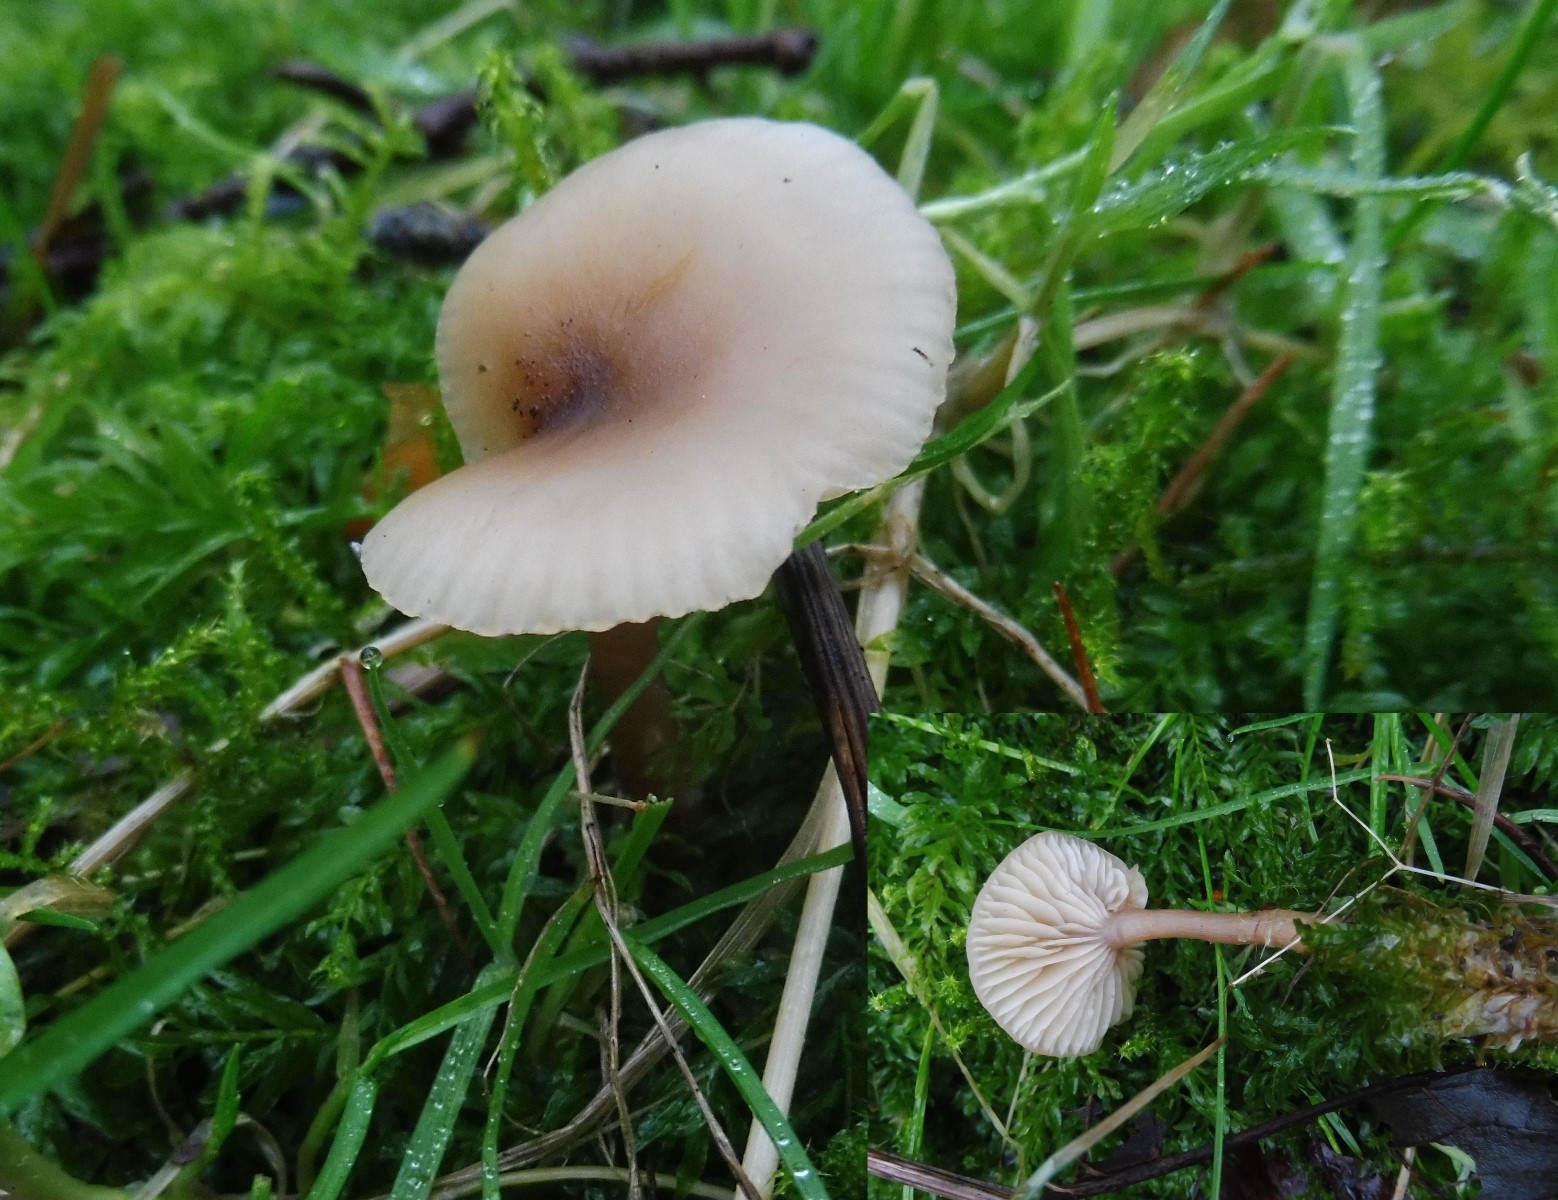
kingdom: Fungi
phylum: Basidiomycota
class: Agaricomycetes
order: Agaricales
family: Tricholomataceae
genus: Clitocybe
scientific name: Clitocybe fragrans
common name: vellugtende tragthat
